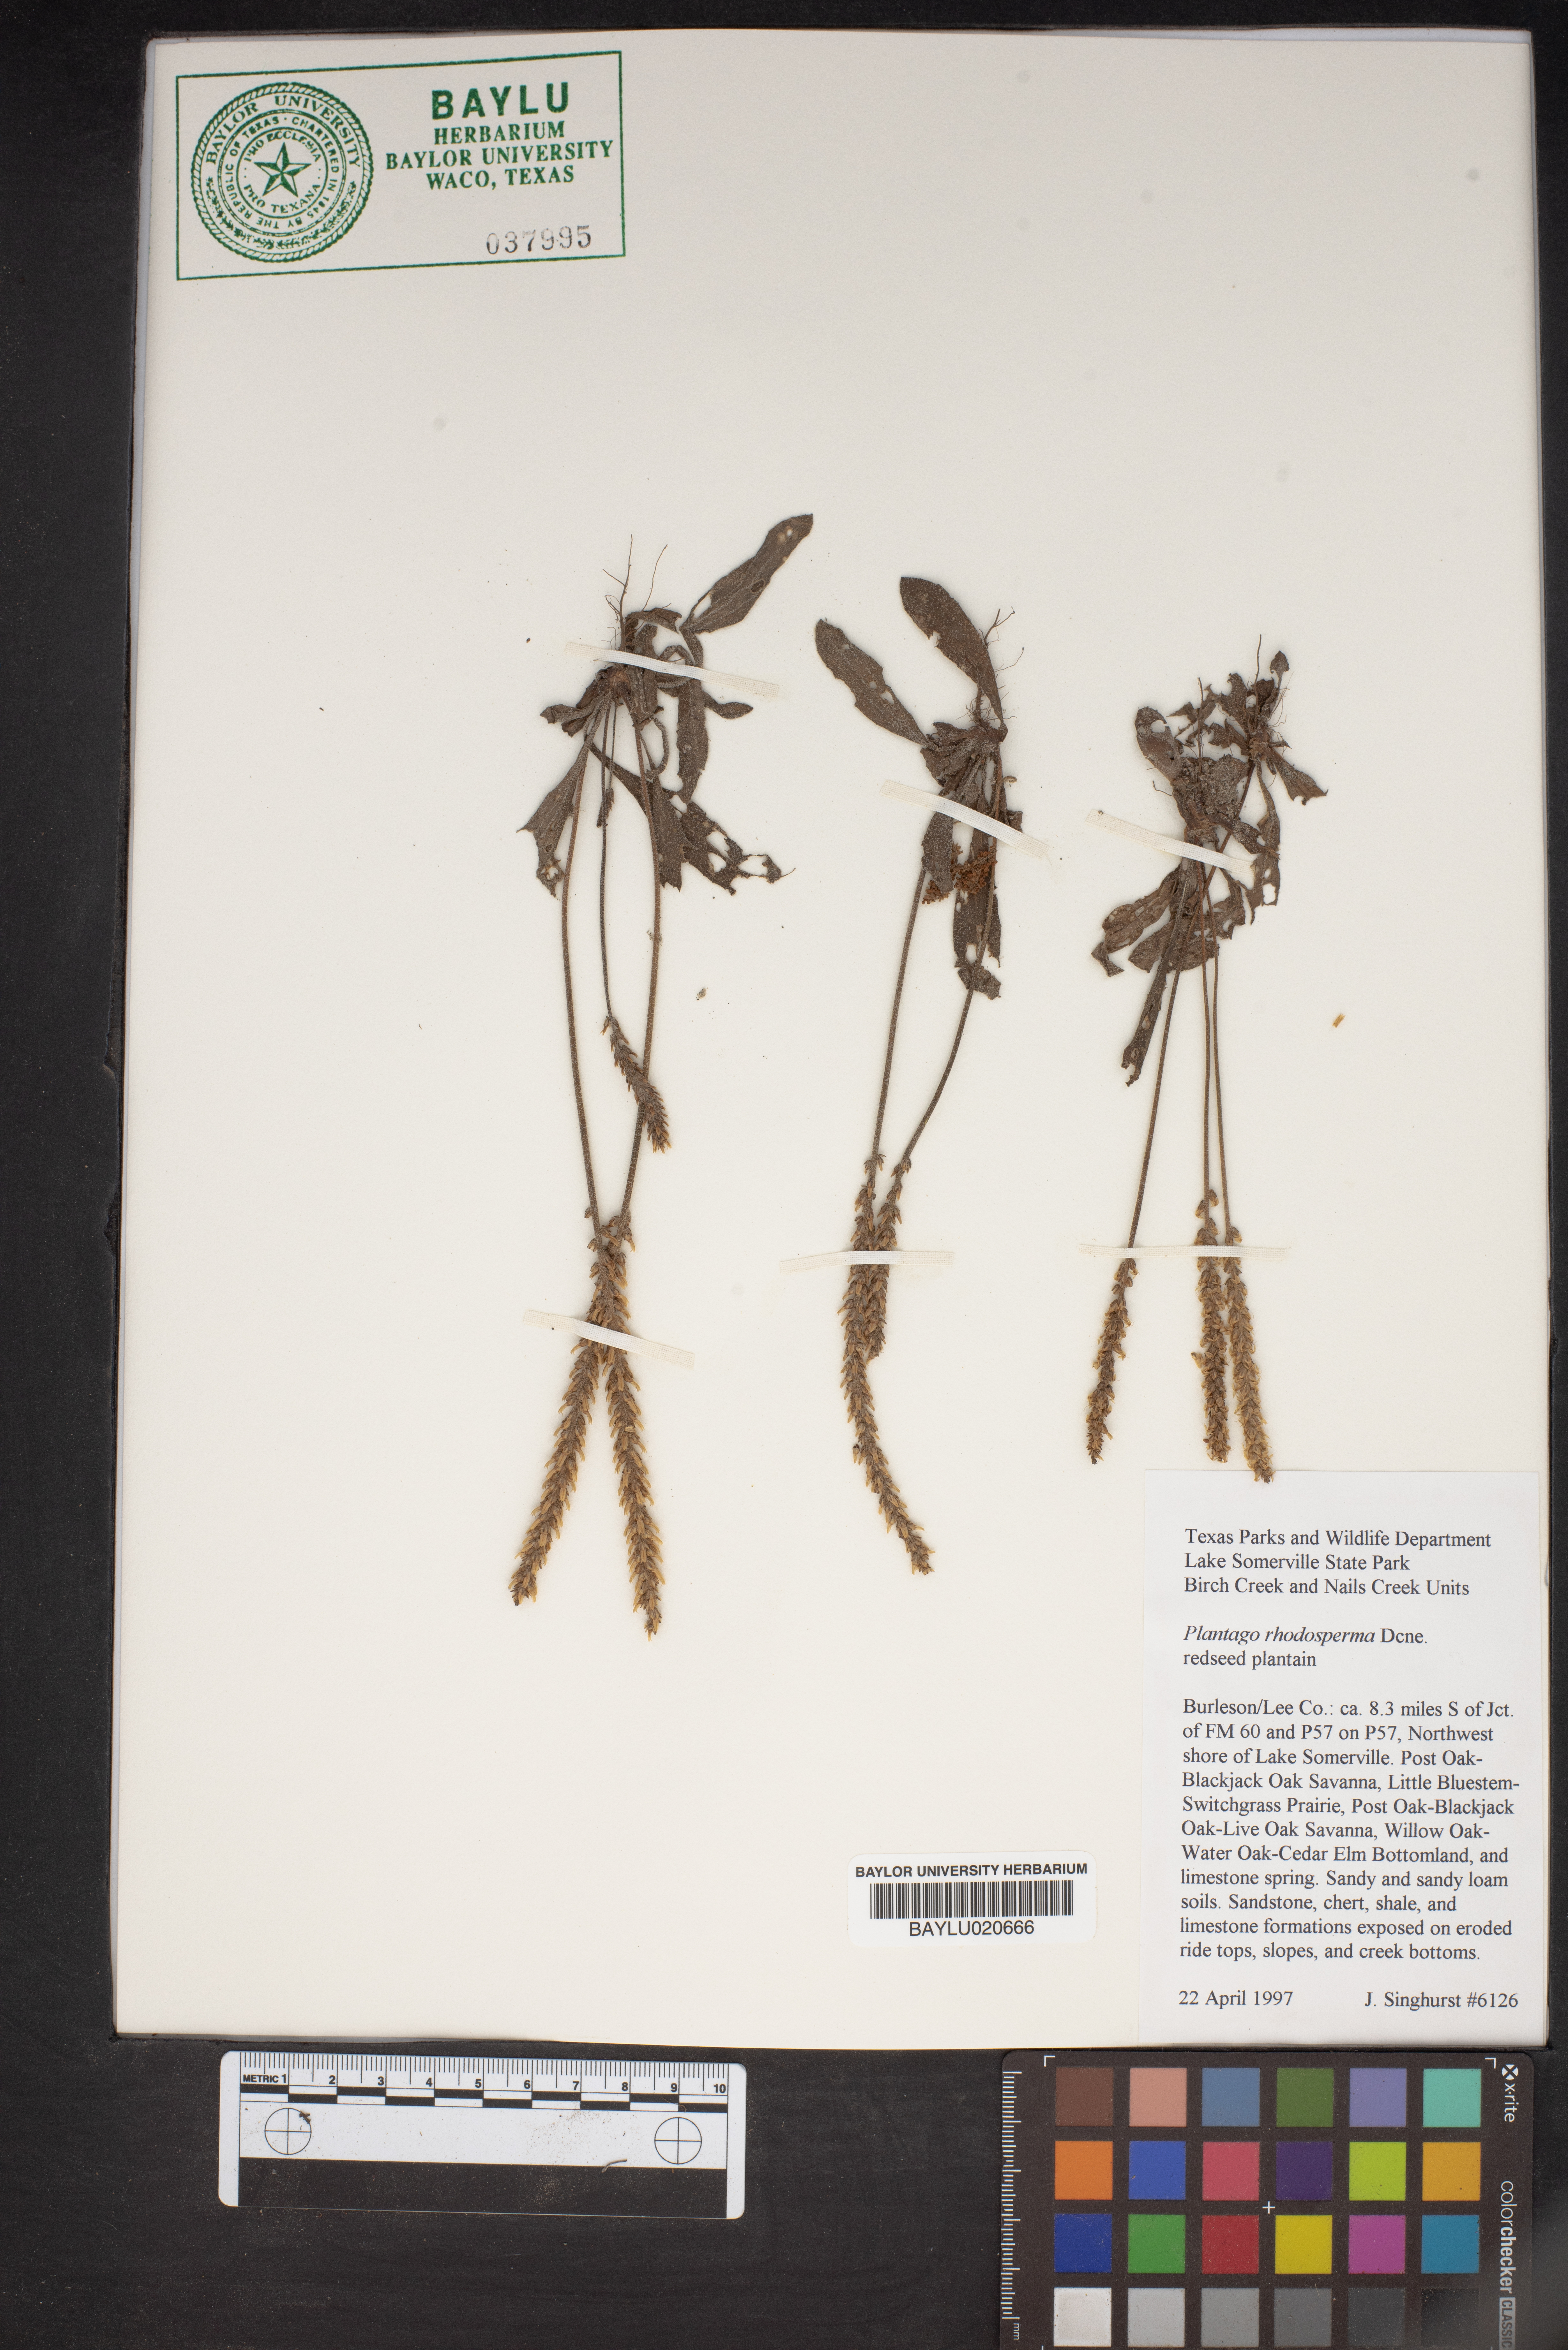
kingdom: Plantae
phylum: Tracheophyta
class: Magnoliopsida
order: Lamiales
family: Plantaginaceae
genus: Plantago
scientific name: Plantago rhodosperma
